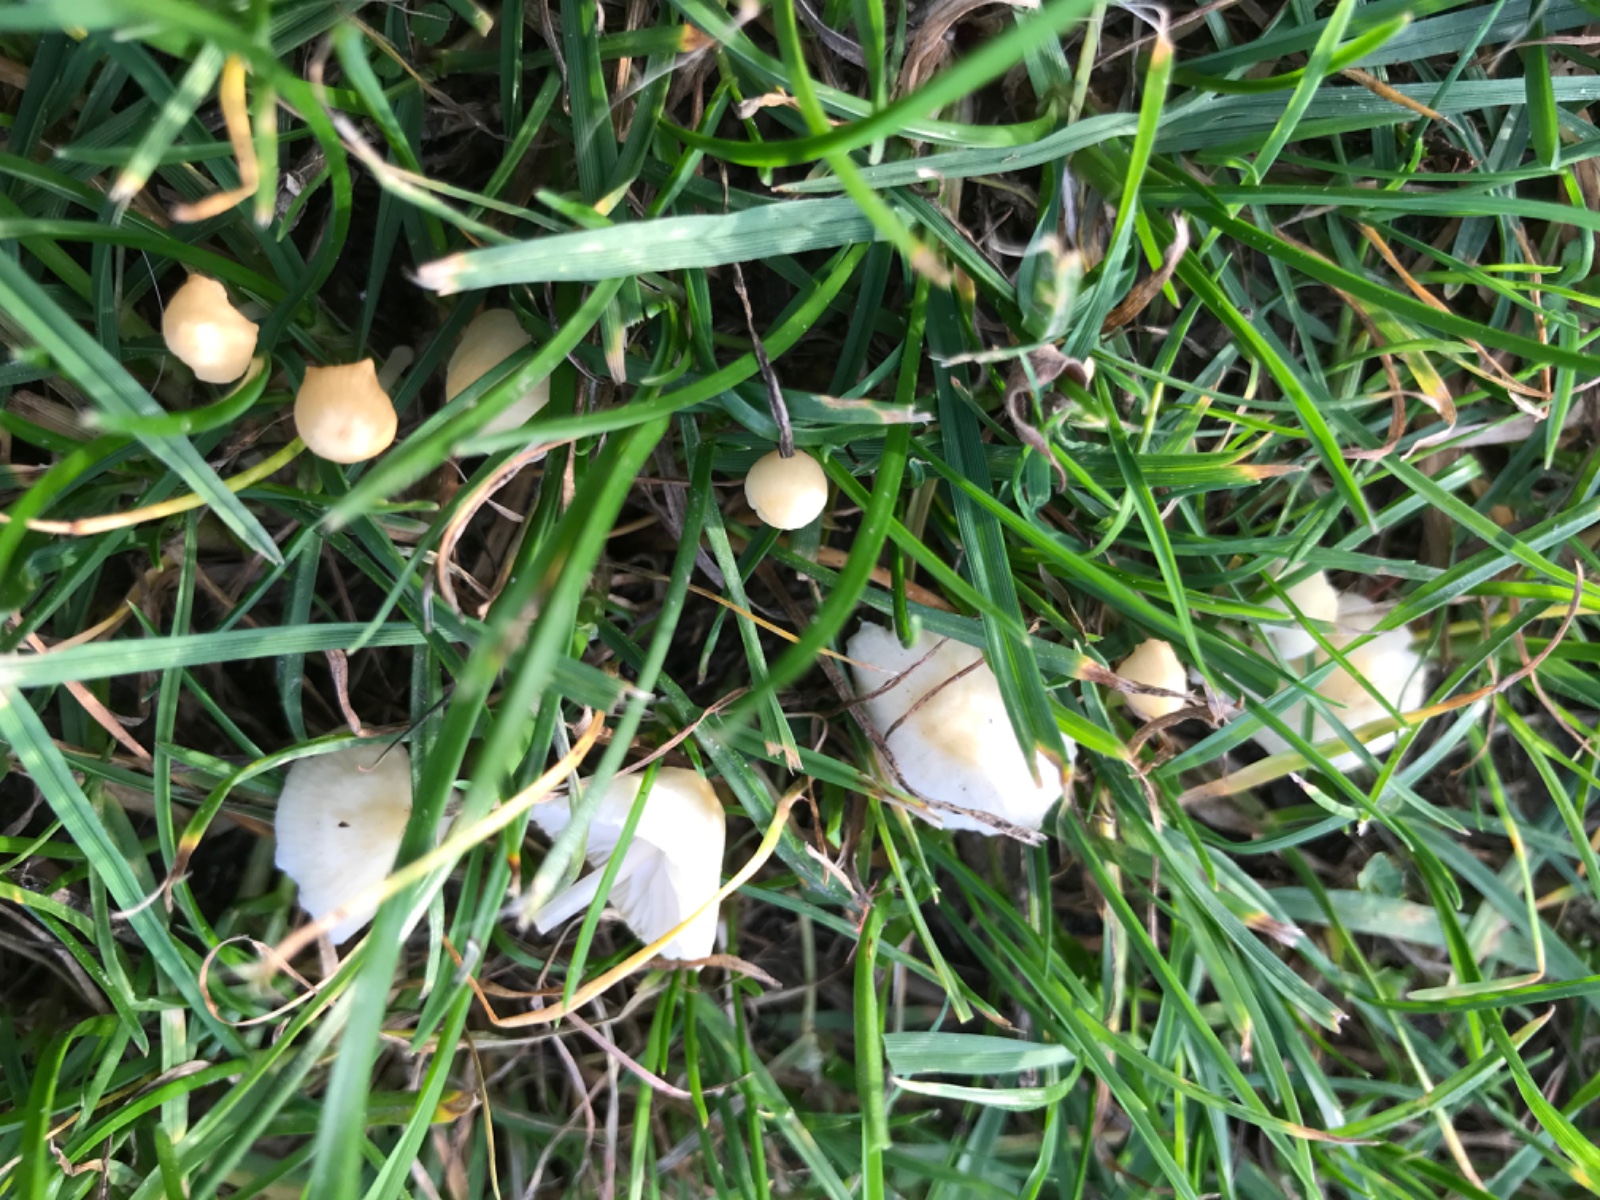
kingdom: Fungi
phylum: Basidiomycota
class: Agaricomycetes
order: Agaricales
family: Mycenaceae
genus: Atheniella
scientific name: Atheniella flavoalba
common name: gulhvid huesvamp
